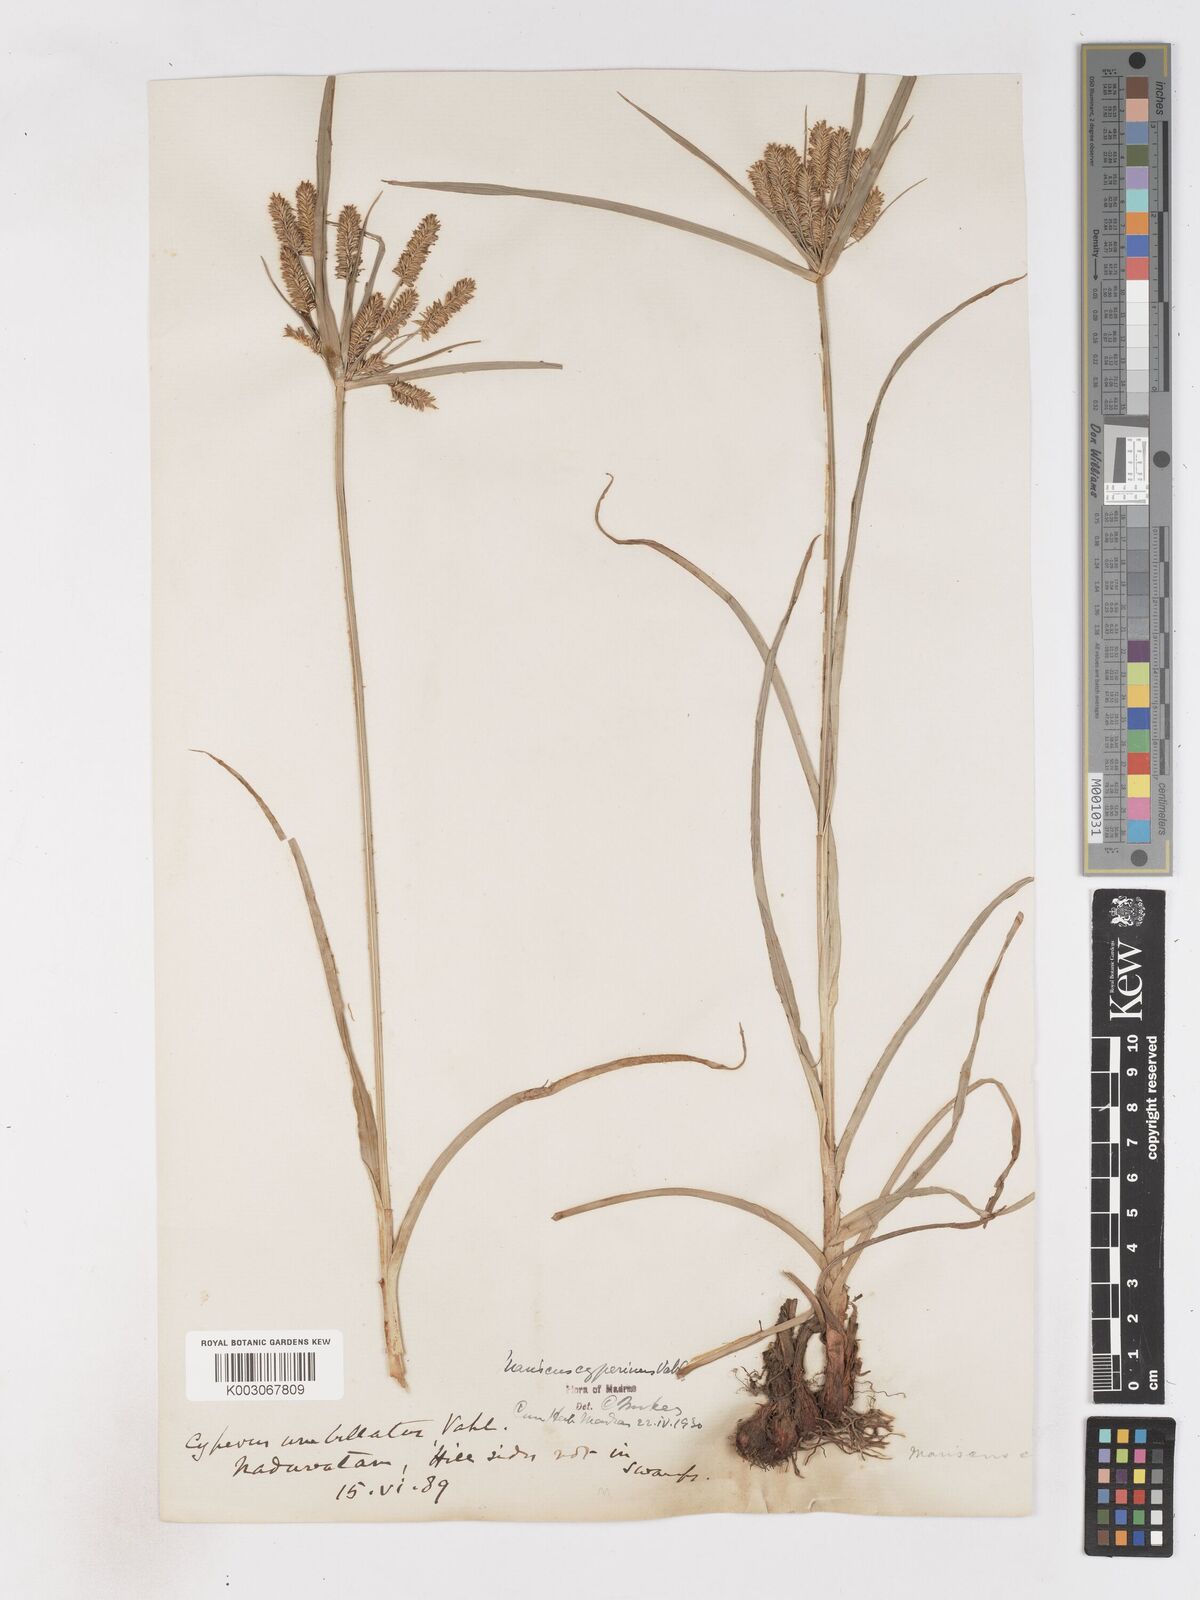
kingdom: Plantae
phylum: Tracheophyta
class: Liliopsida
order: Poales
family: Cyperaceae
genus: Cyperus
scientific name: Cyperus cyperoides
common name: Pacific island flat sedge
